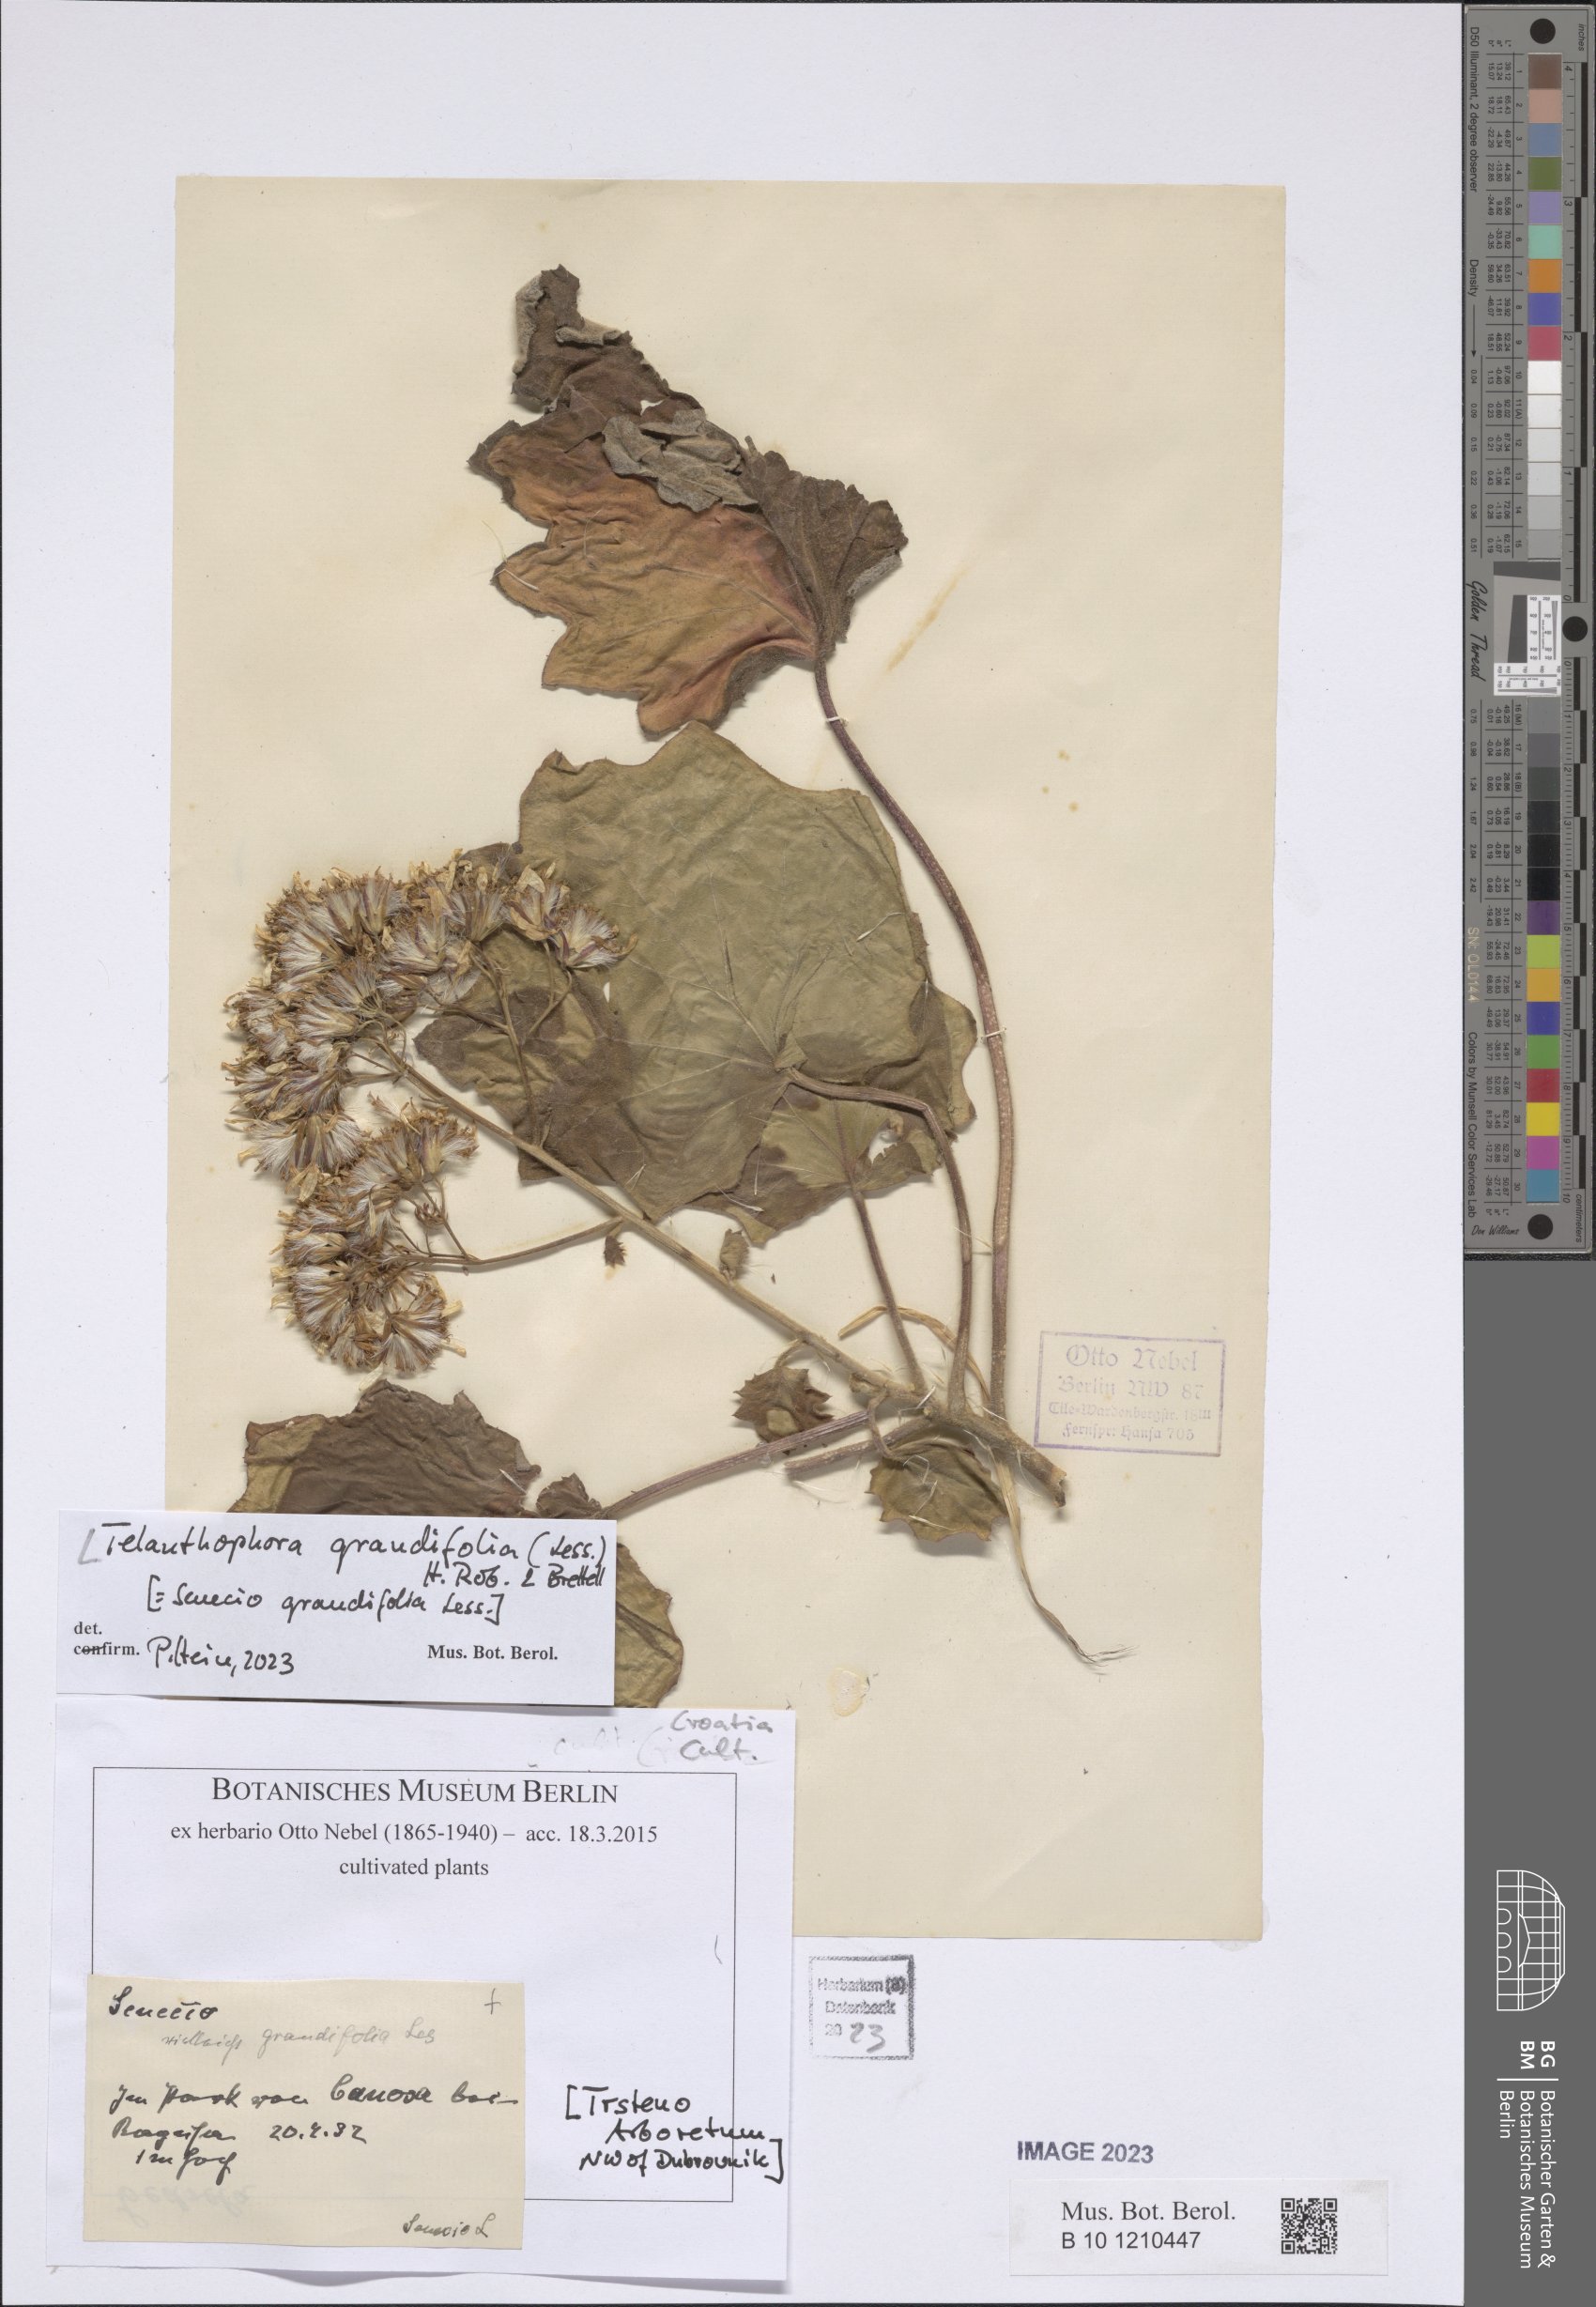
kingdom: Plantae
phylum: Tracheophyta
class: Magnoliopsida
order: Asterales
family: Asteraceae
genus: Telanthophora
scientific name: Telanthophora grandifolia
